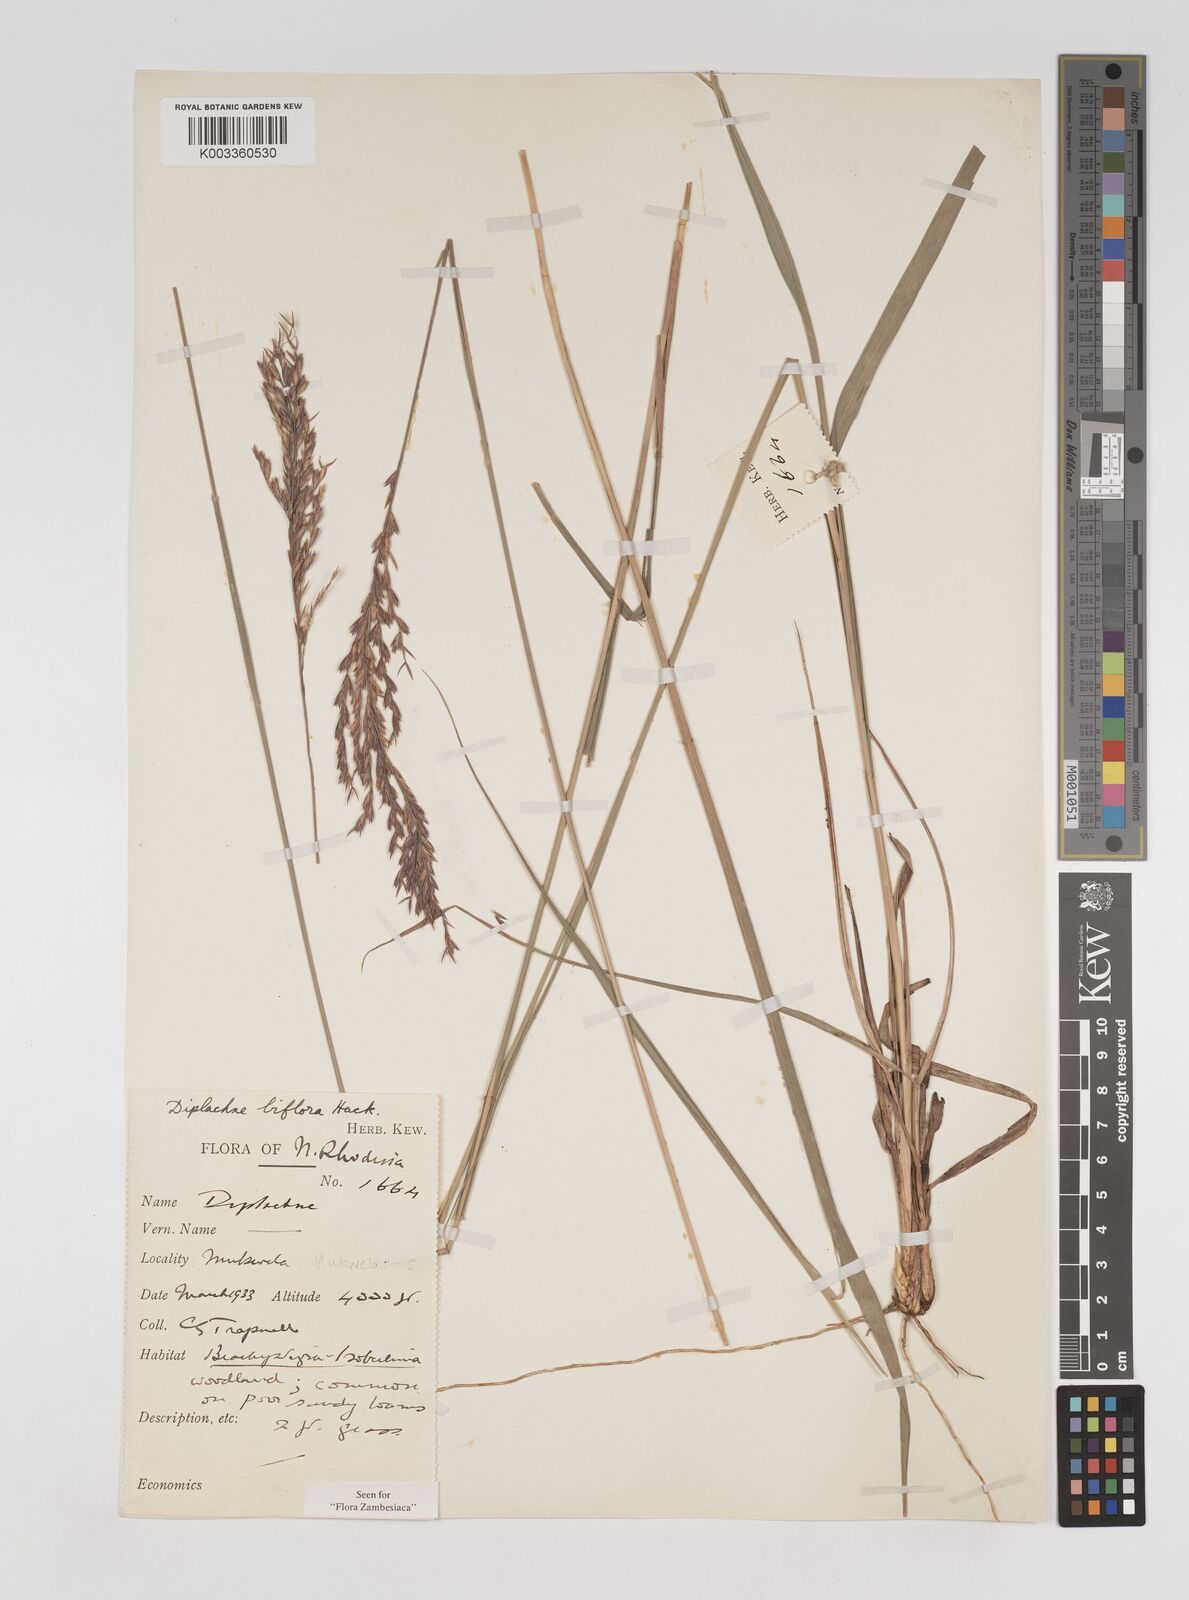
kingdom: Plantae
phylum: Tracheophyta
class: Liliopsida
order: Poales
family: Poaceae
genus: Bewsia
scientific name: Bewsia biflora
